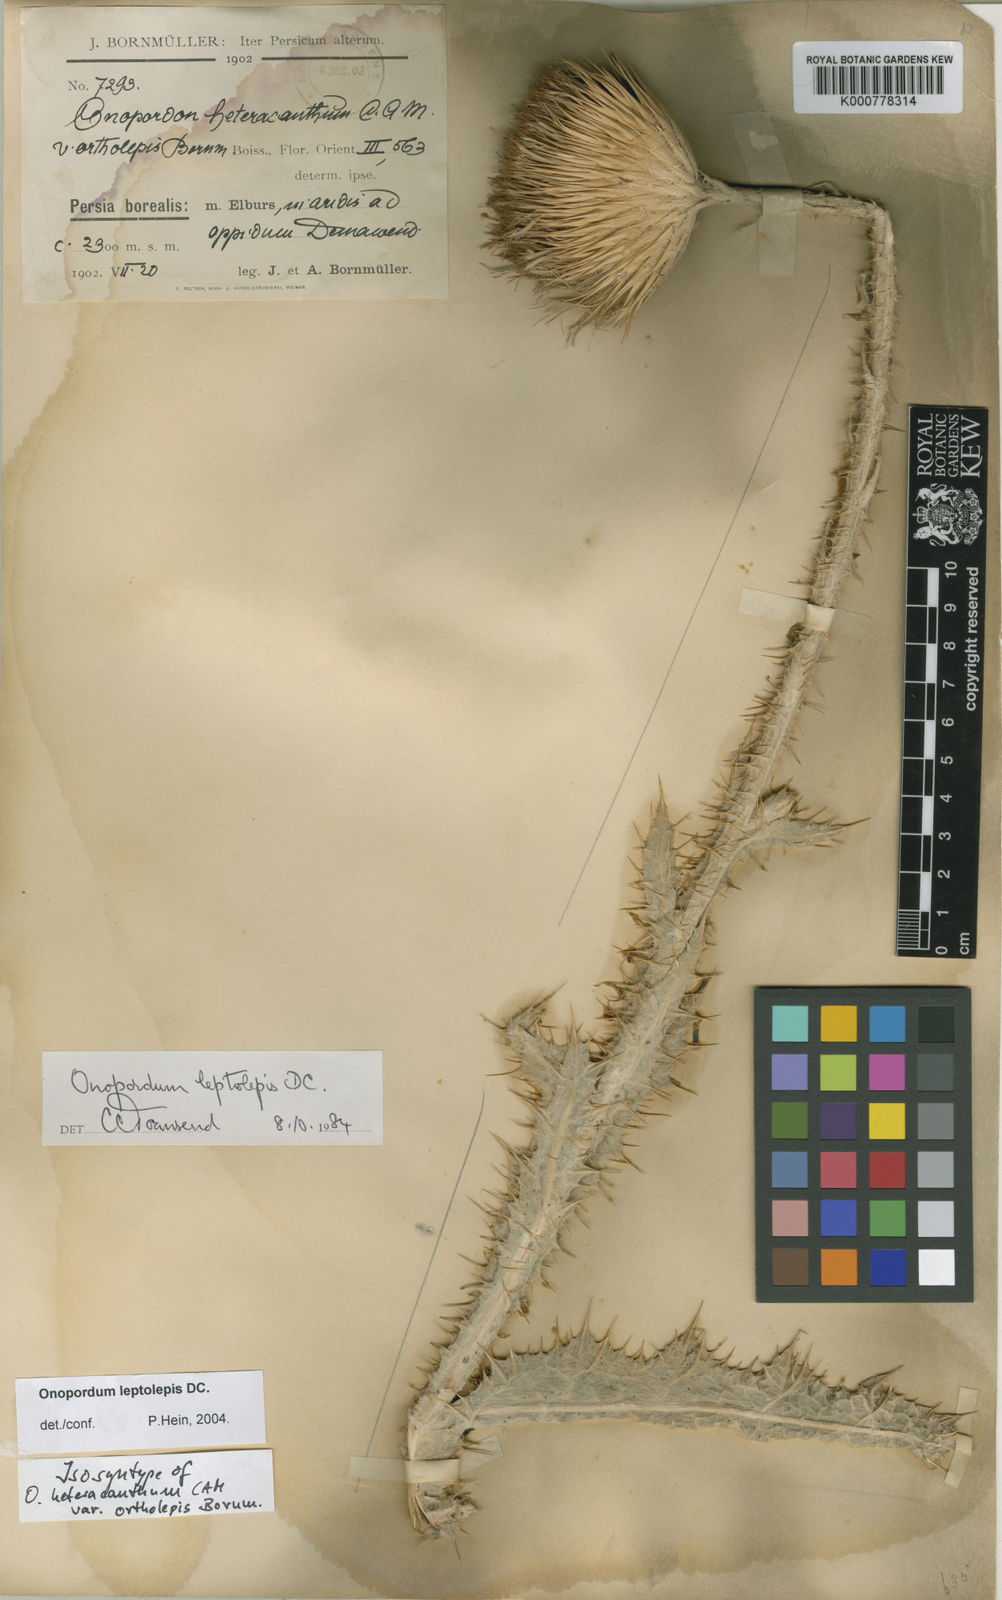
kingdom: Plantae
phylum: Tracheophyta
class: Magnoliopsida
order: Asterales
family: Asteraceae
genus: Onopordum
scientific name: Onopordum leptolepis
